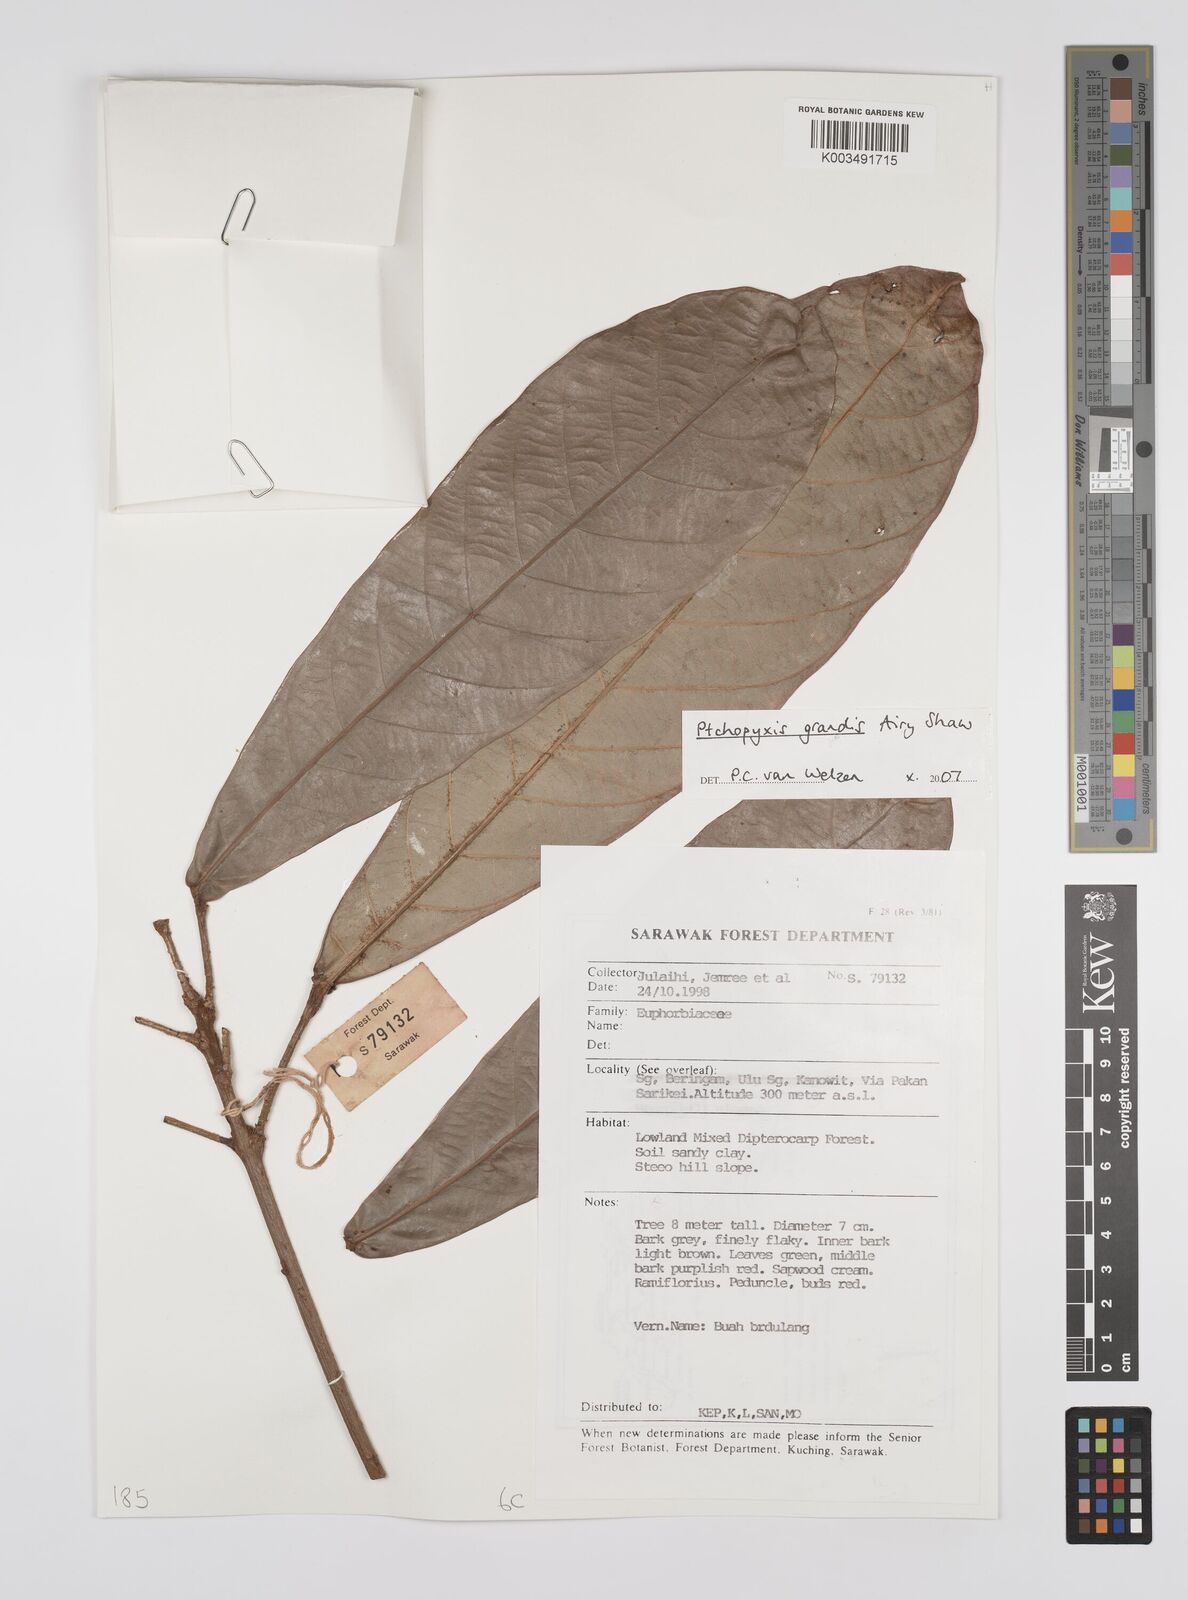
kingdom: Plantae
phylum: Tracheophyta
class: Magnoliopsida
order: Malpighiales
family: Euphorbiaceae
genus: Ptychopyxis
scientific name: Ptychopyxis grandis
